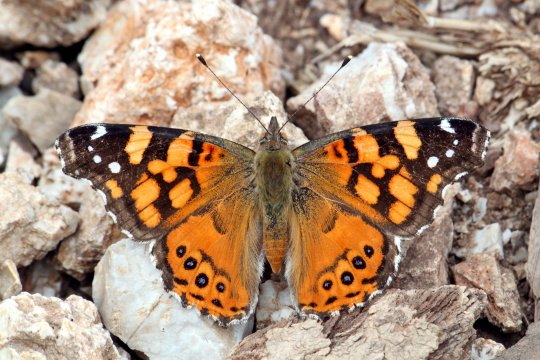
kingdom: Animalia
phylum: Arthropoda
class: Insecta
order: Lepidoptera
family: Nymphalidae
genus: Vanessa
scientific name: Vanessa annabella
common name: West Coast Lady
